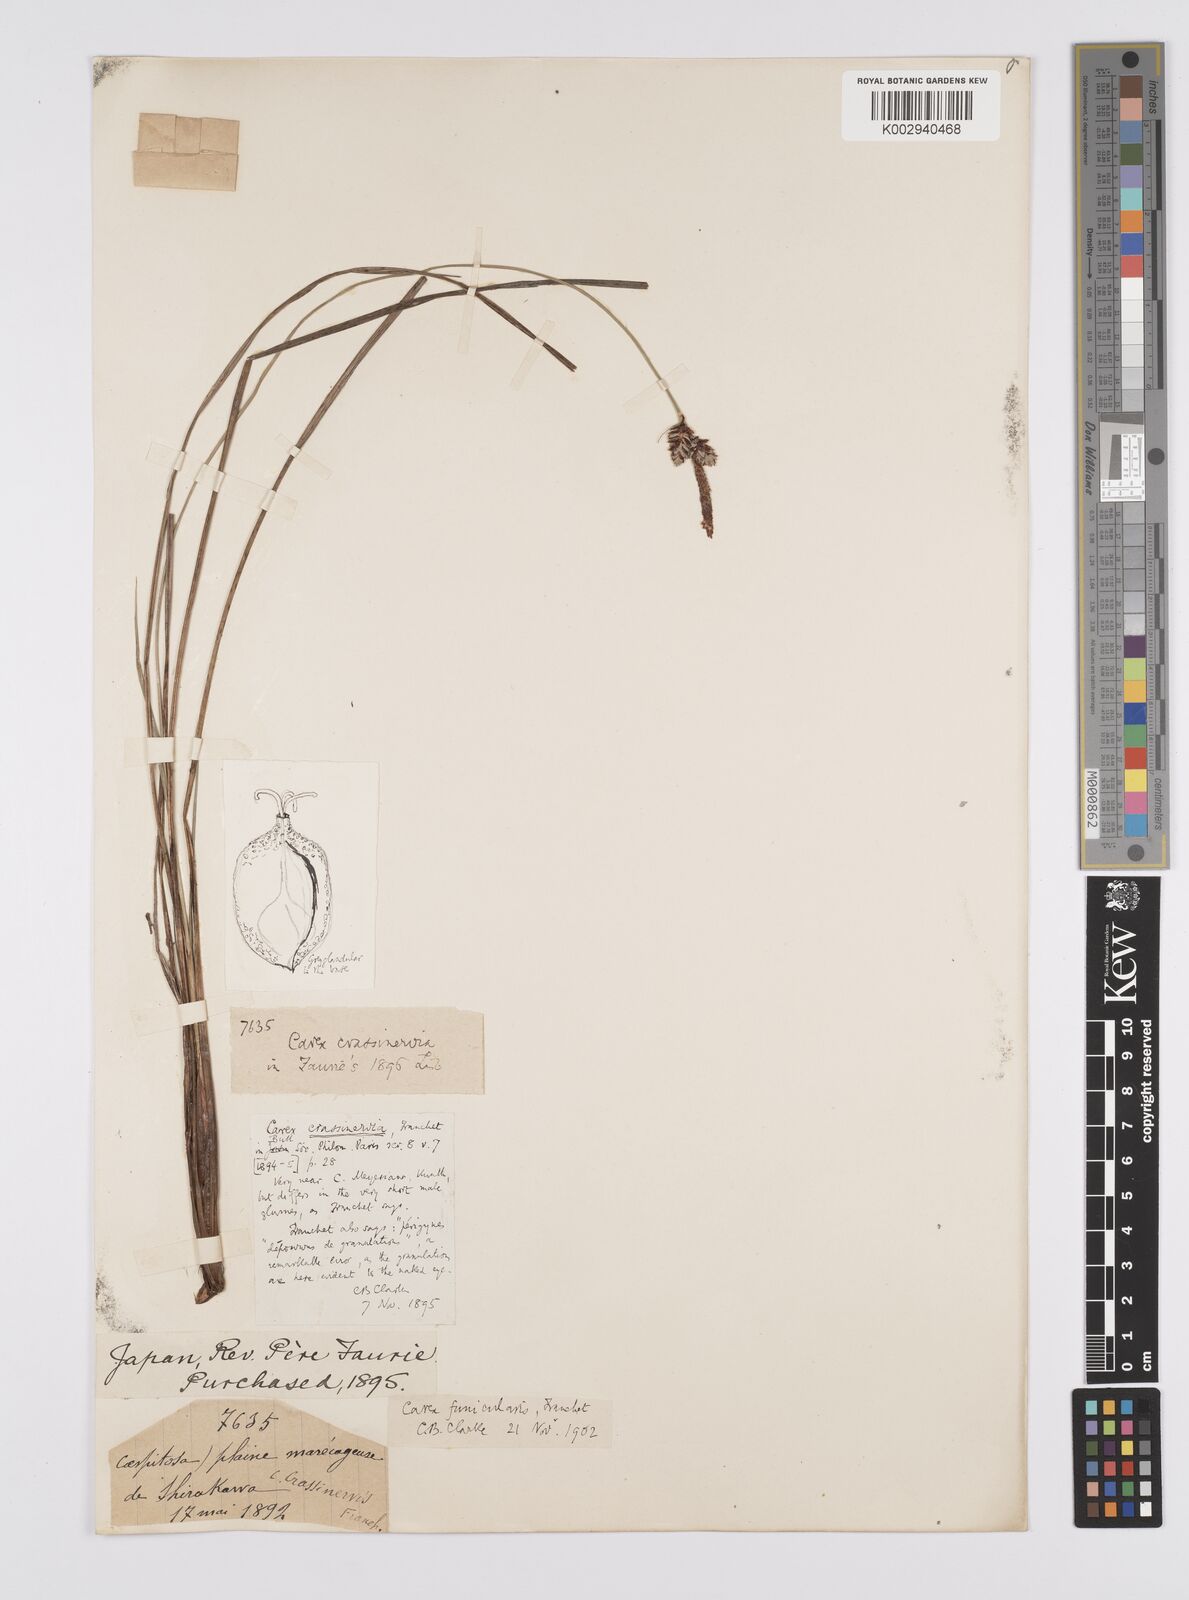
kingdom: Plantae
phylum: Tracheophyta
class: Liliopsida
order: Poales
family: Cyperaceae
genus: Carex
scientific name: Carex meyeriana
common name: Wula sedge
